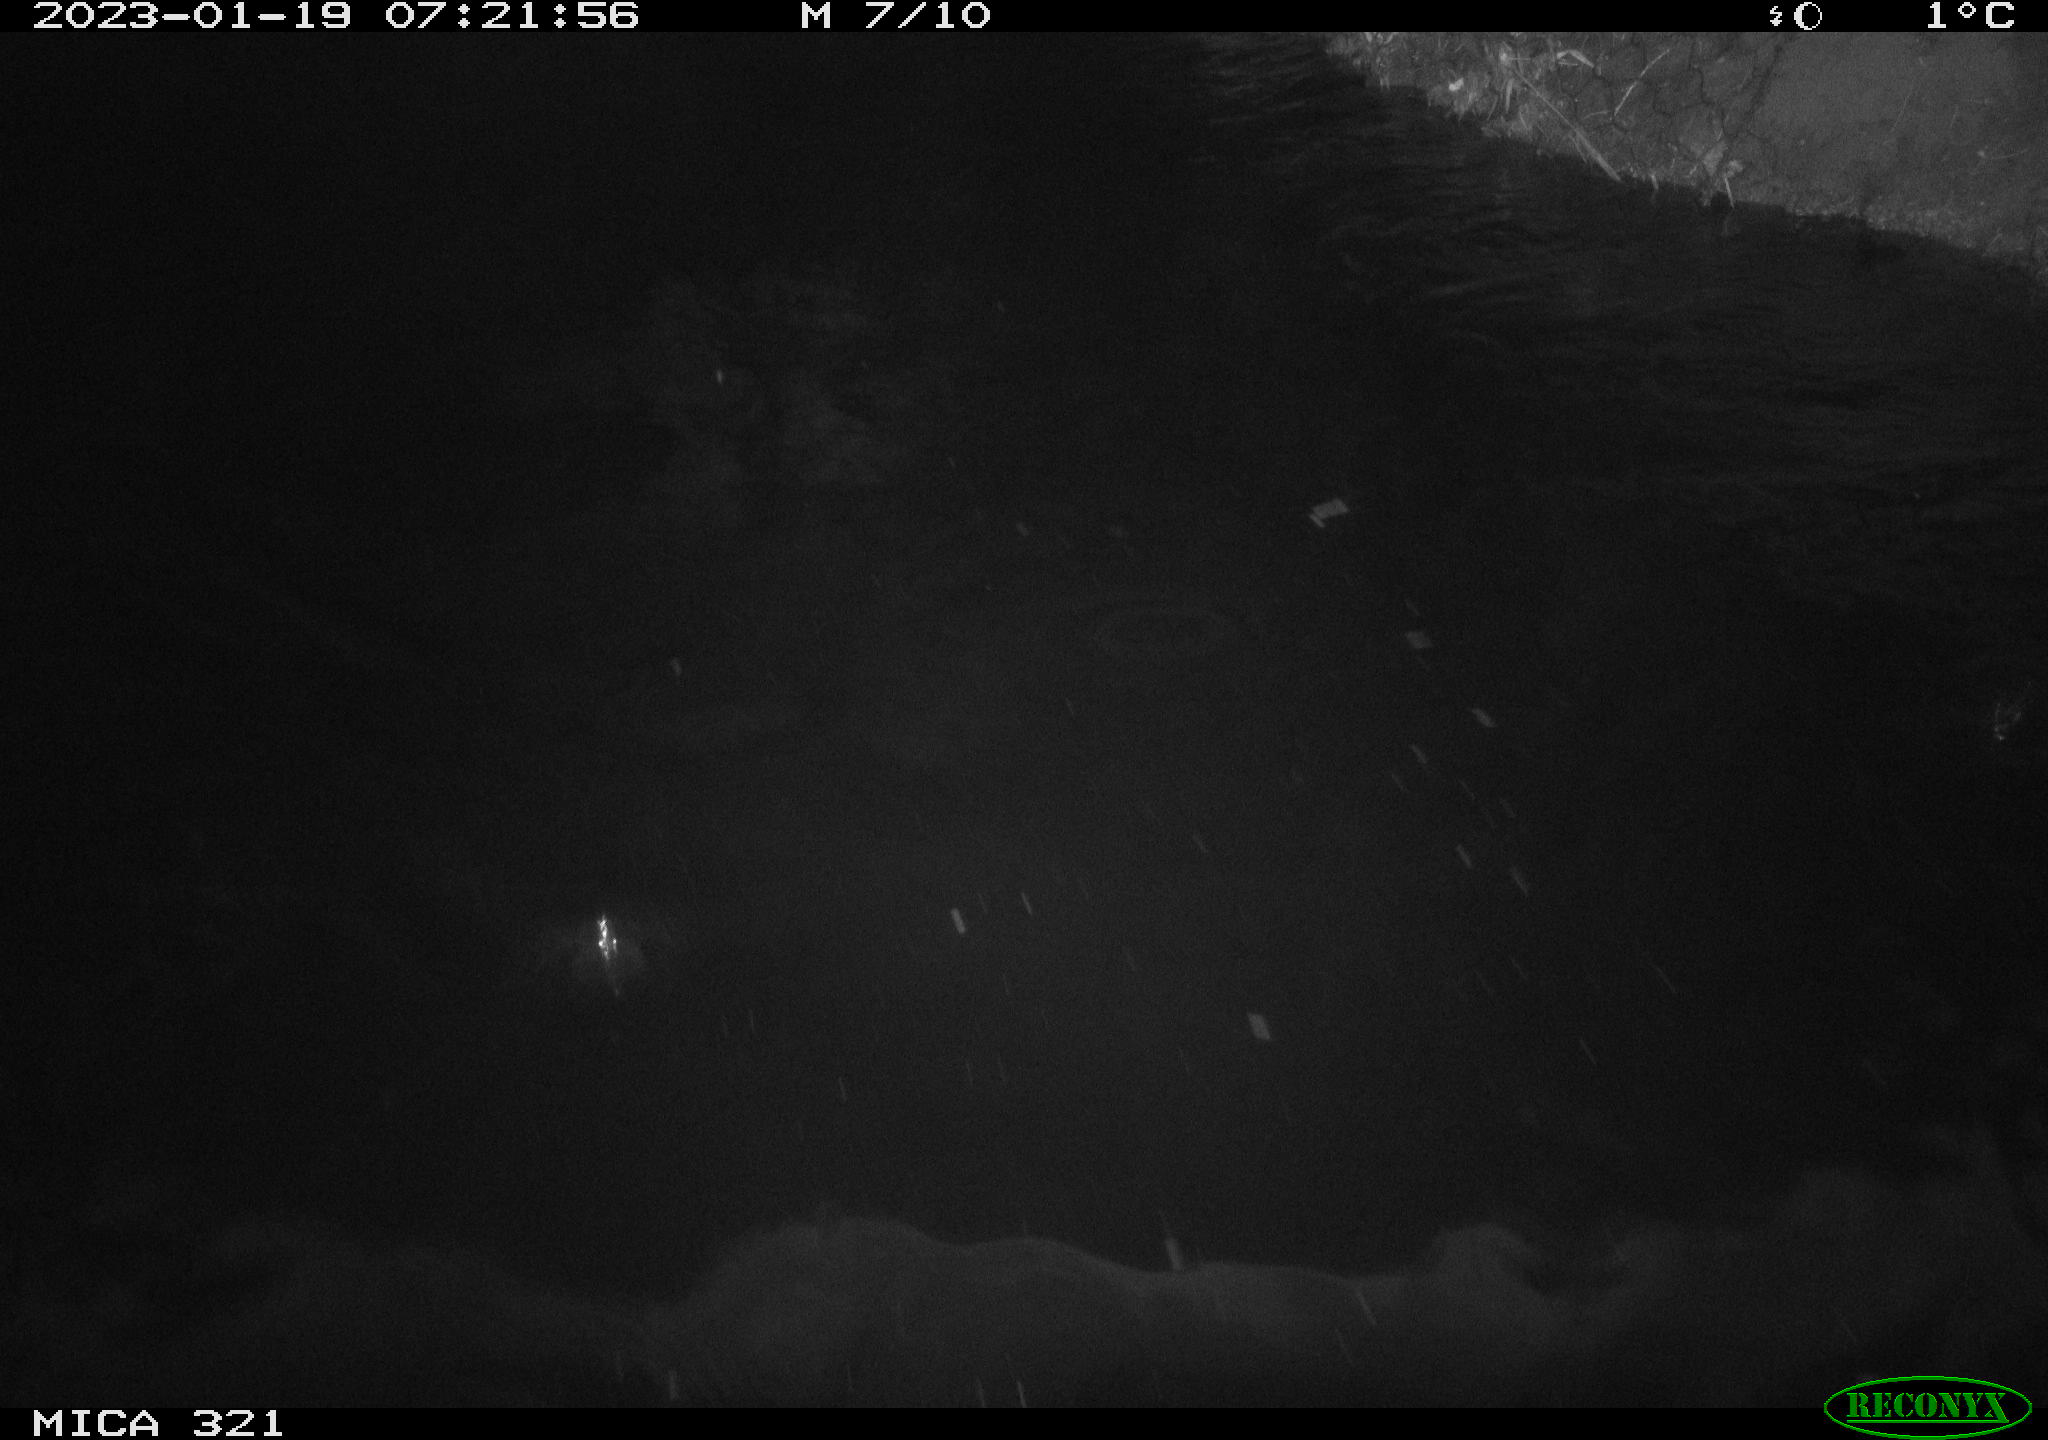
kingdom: Animalia
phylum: Chordata
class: Aves
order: Anseriformes
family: Anatidae
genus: Anas
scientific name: Anas
